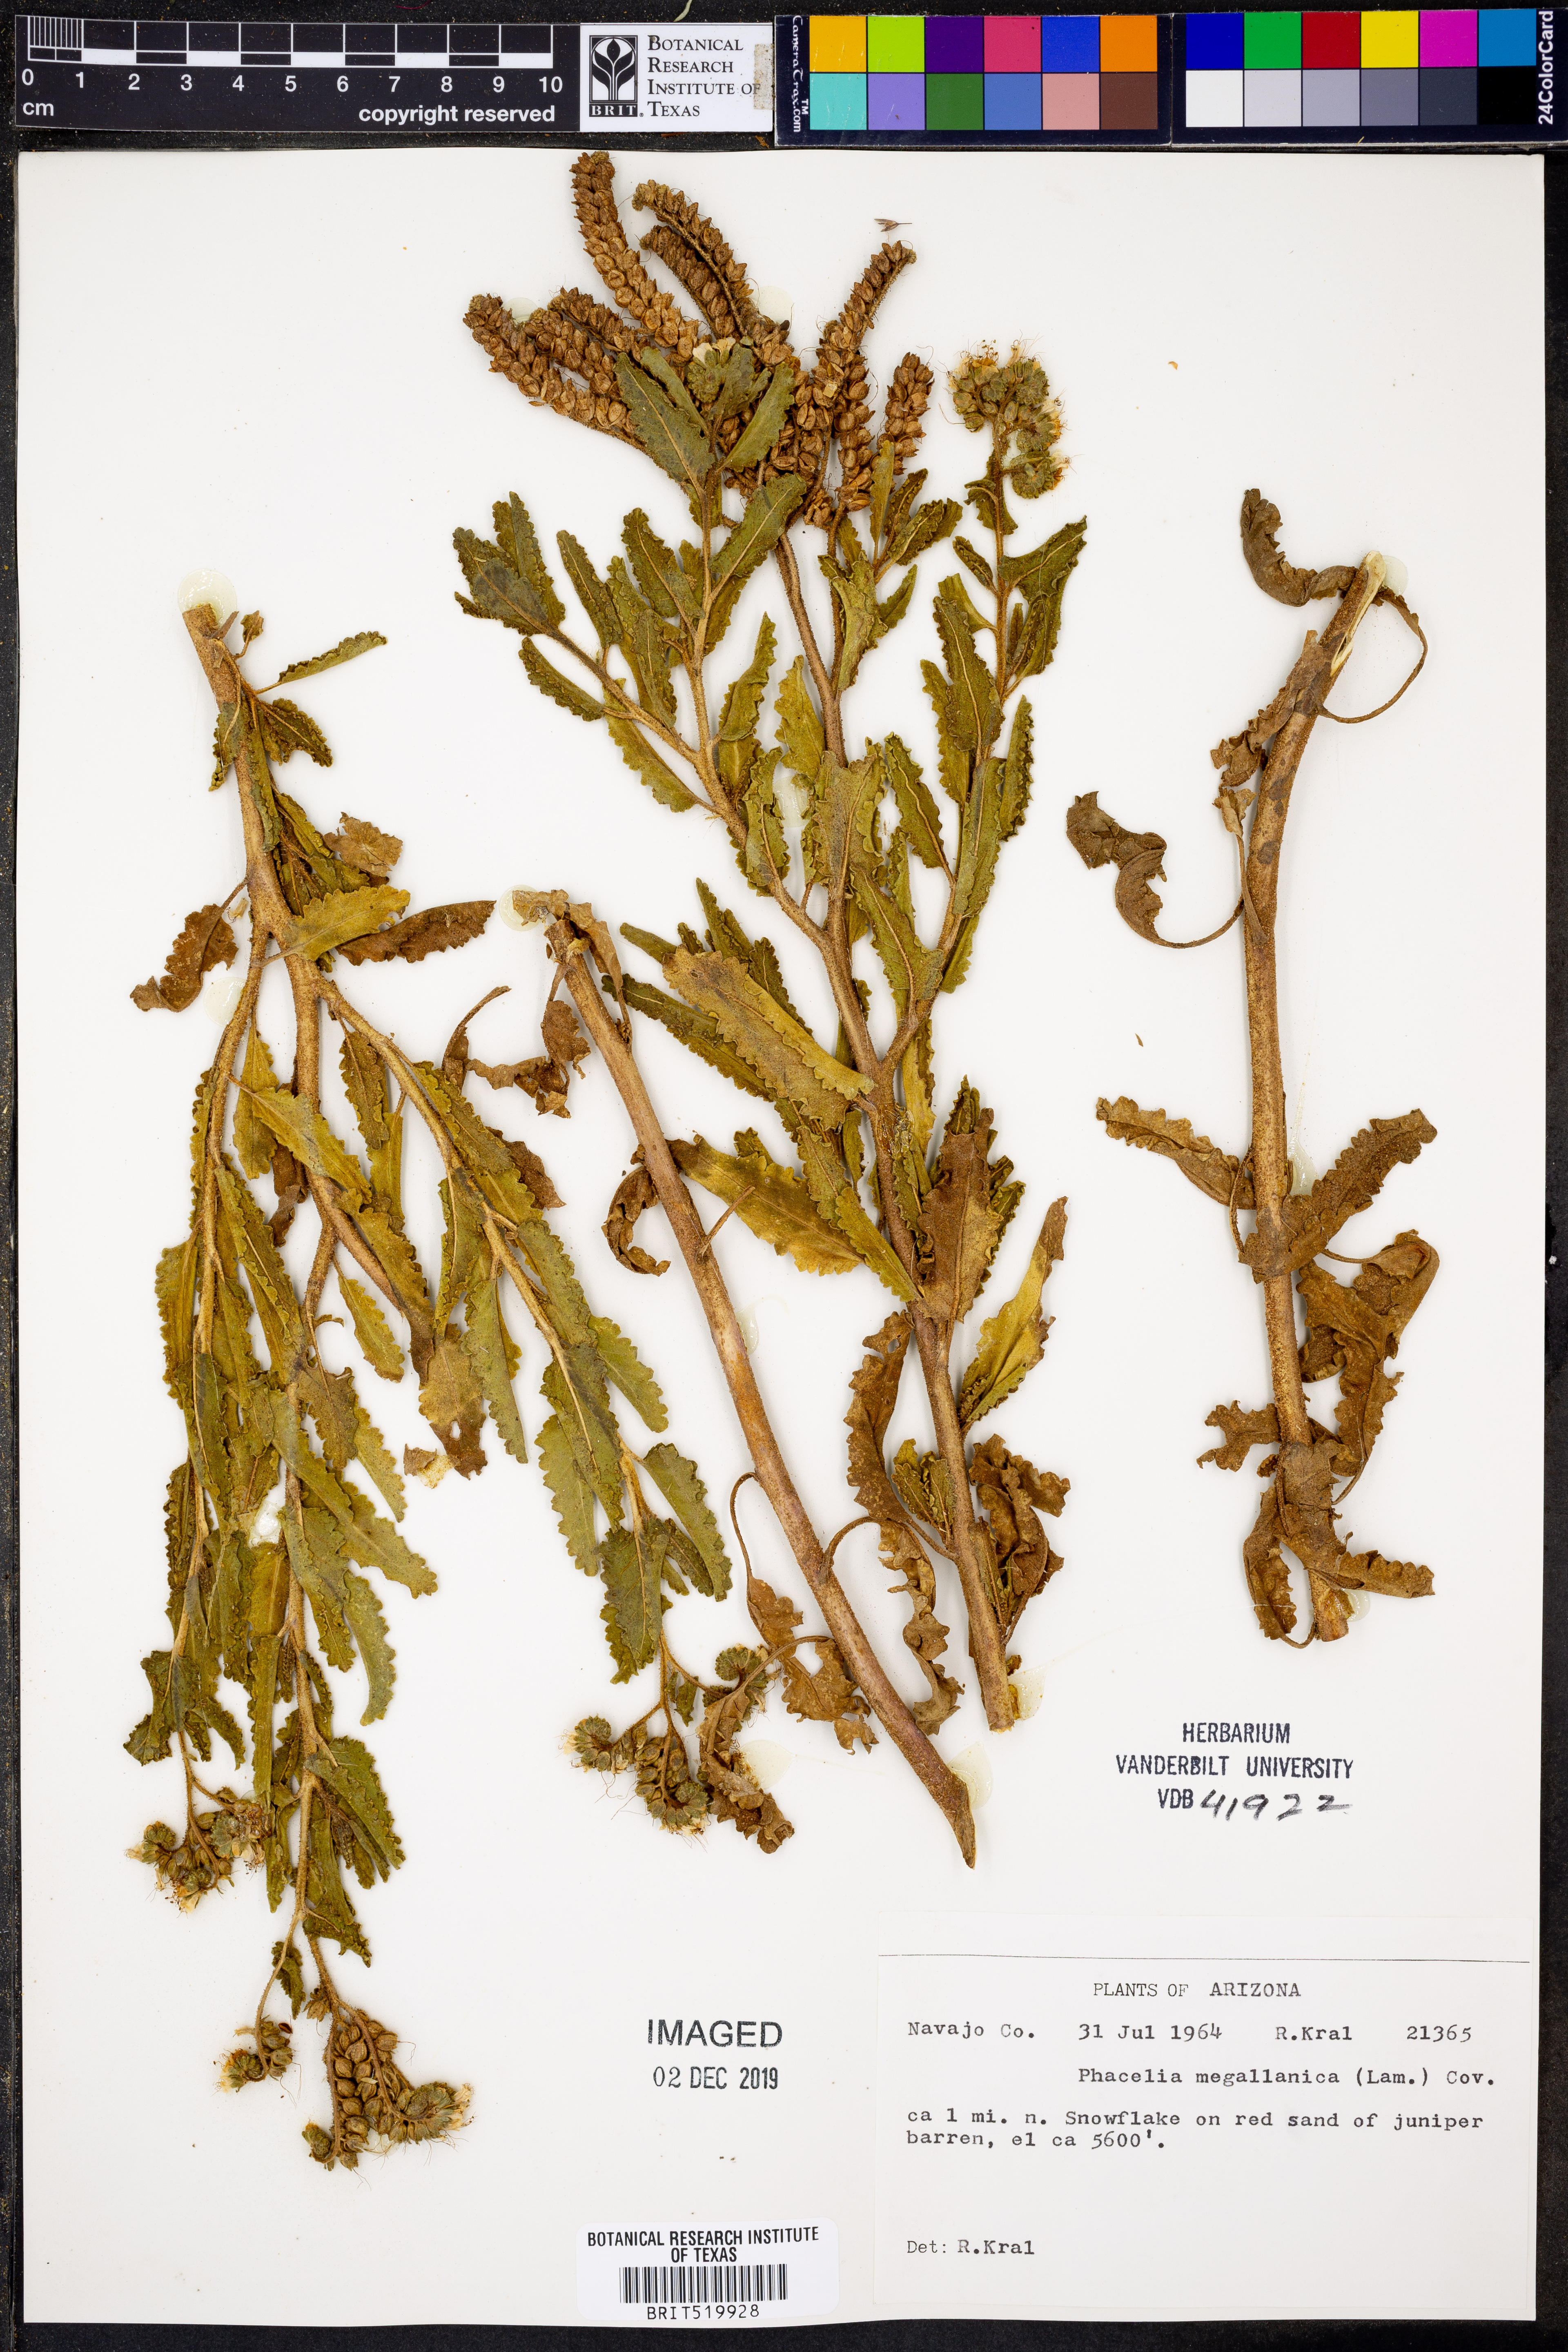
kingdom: Plantae
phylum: Tracheophyta
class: Magnoliopsida
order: Boraginales
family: Hydrophyllaceae
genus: Phacelia
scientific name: Phacelia secunda
